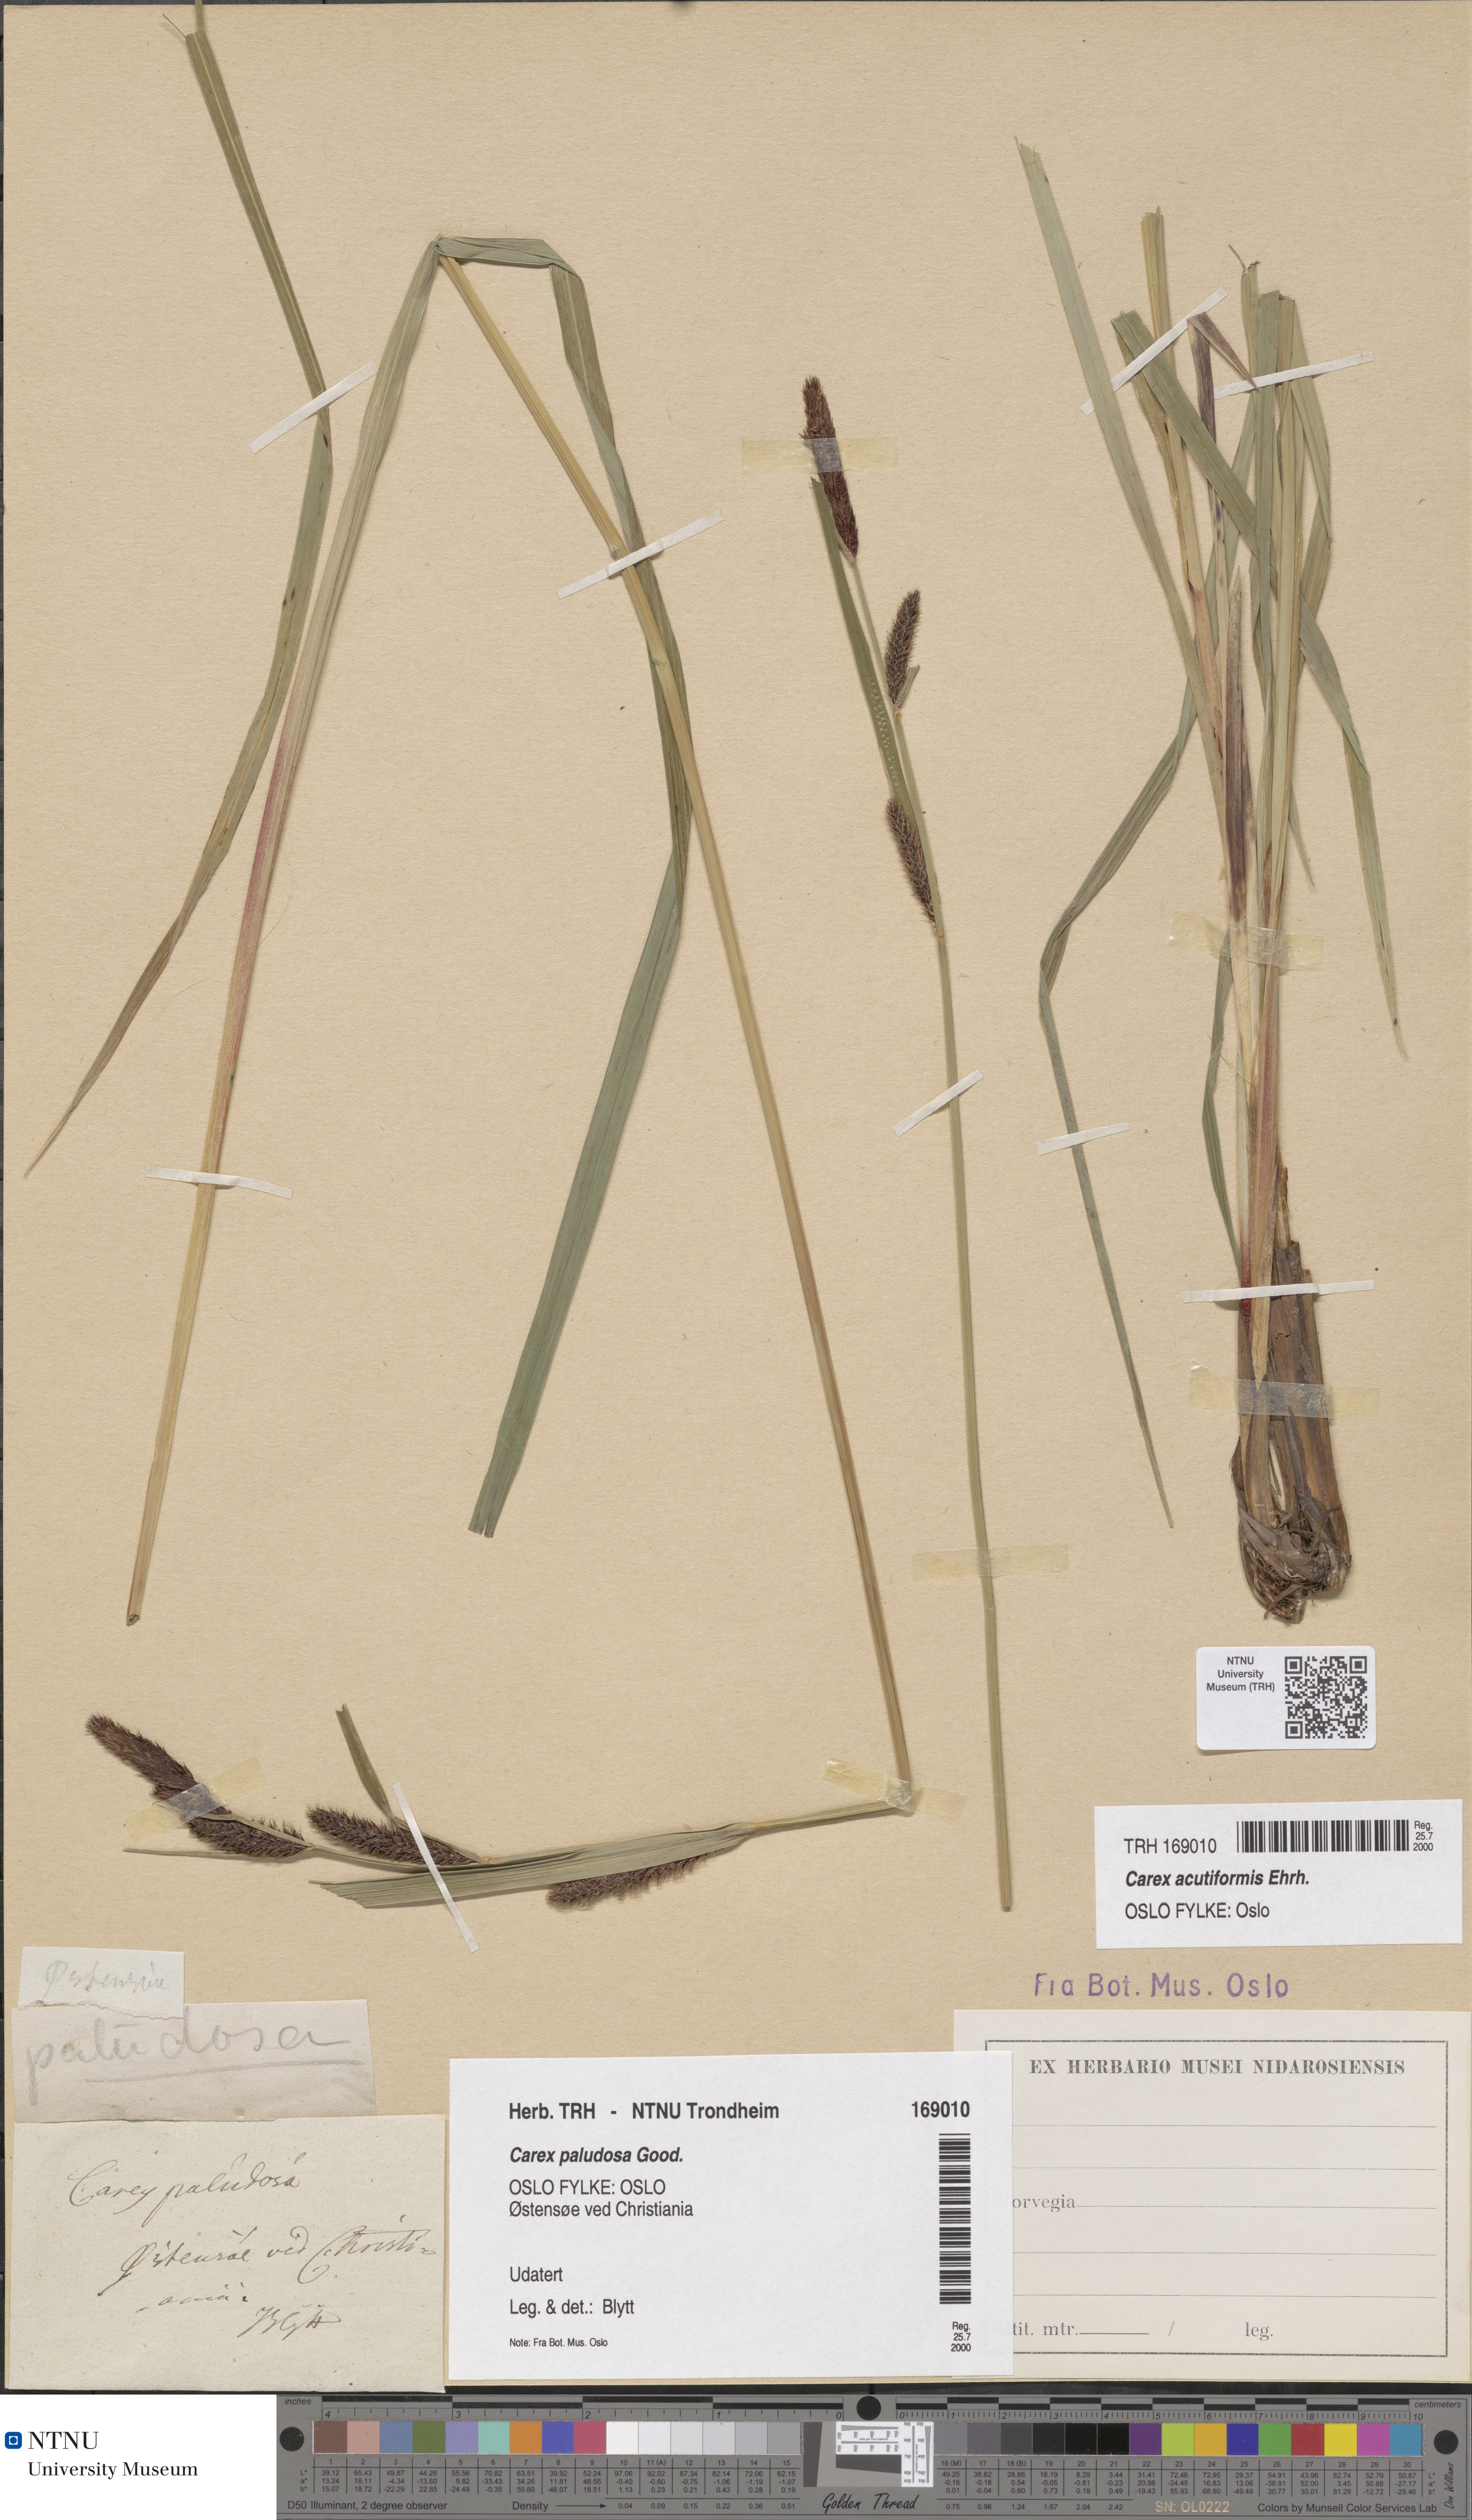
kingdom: Plantae
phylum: Tracheophyta
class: Liliopsida
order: Poales
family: Cyperaceae
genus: Carex
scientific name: Carex acutiformis
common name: Lesser pond-sedge
